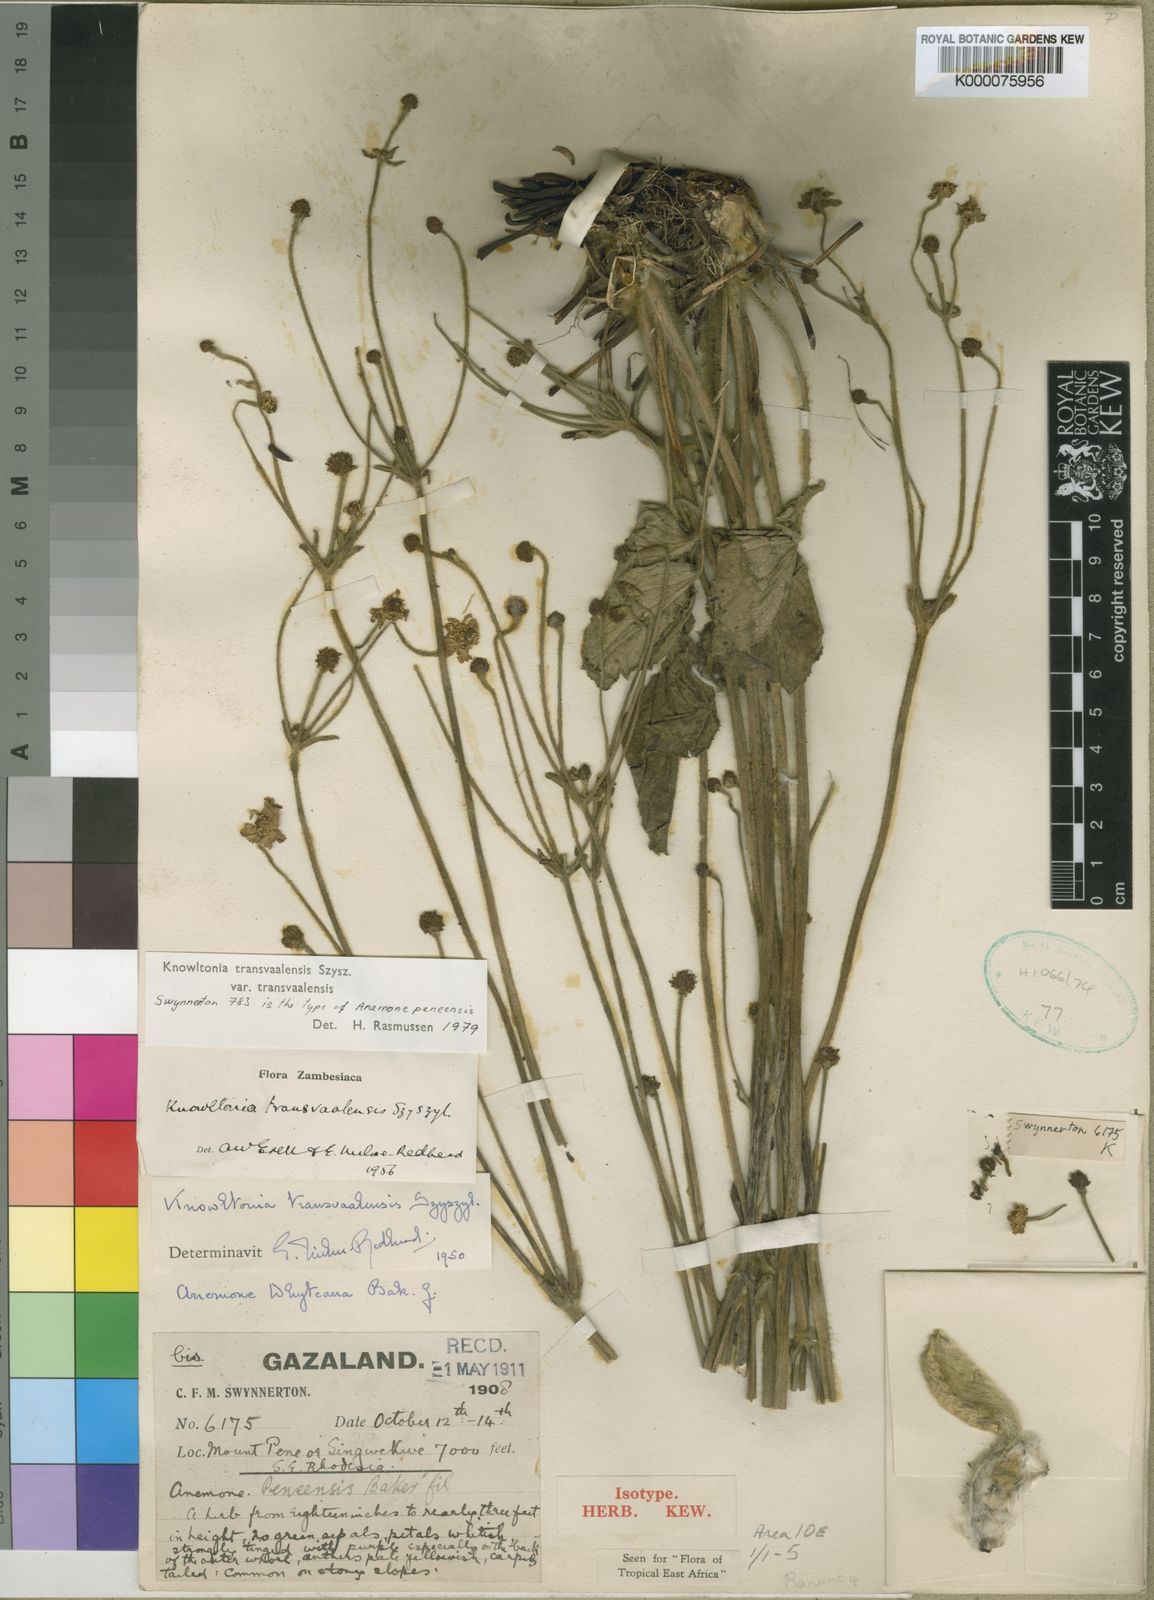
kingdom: Plantae
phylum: Tracheophyta
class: Magnoliopsida
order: Ranunculales
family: Ranunculaceae
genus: Knowltonia
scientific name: Knowltonia transvaalensis
